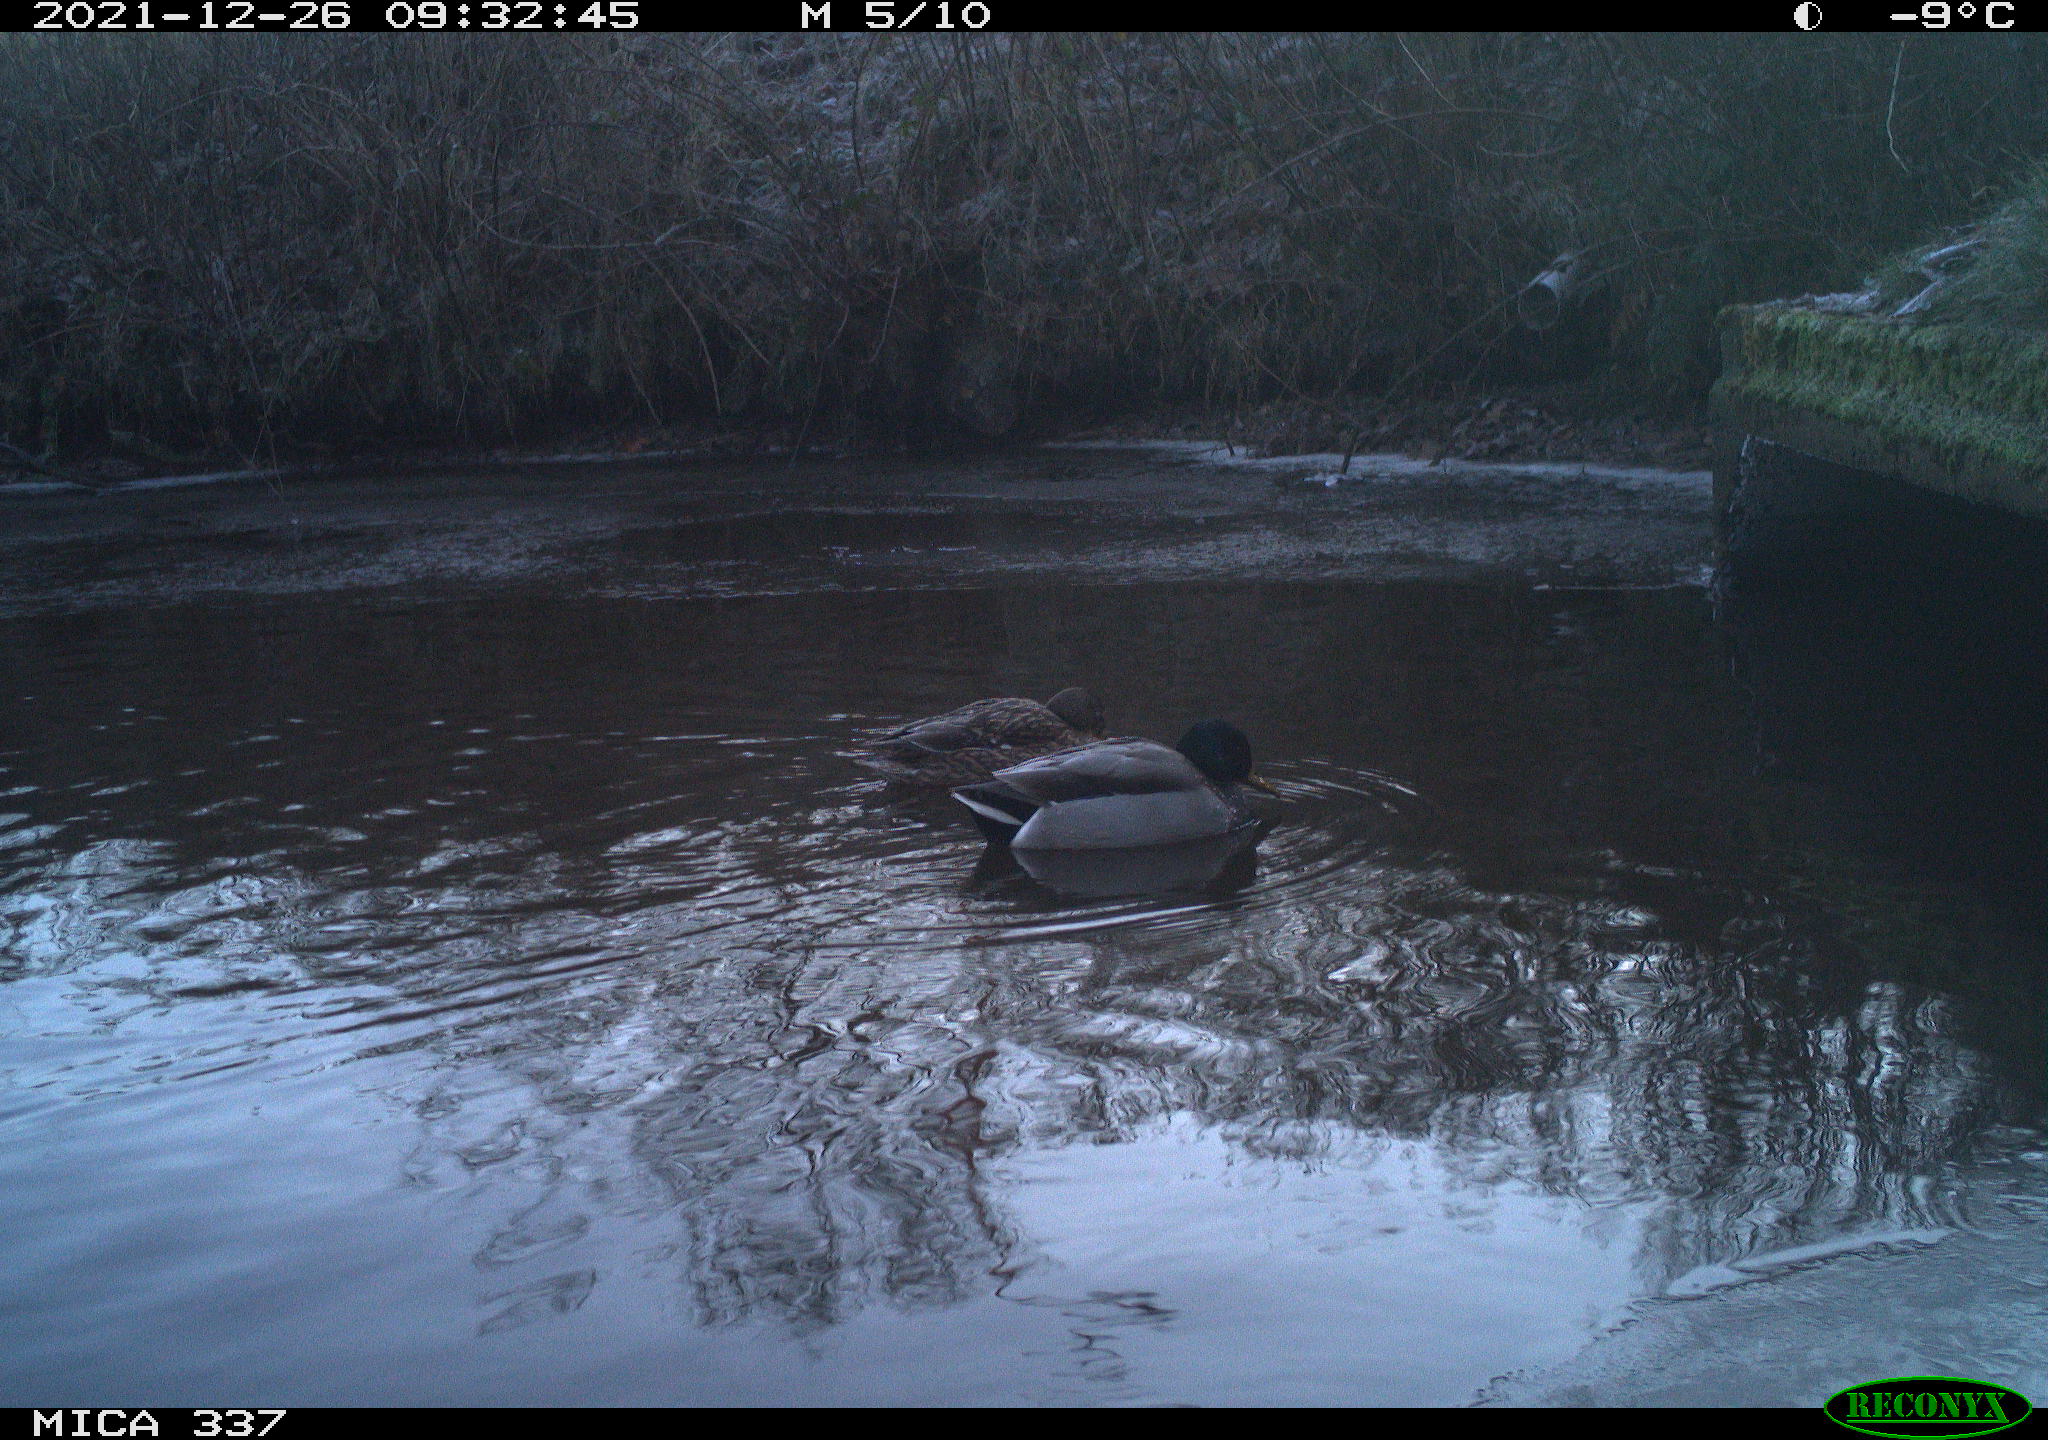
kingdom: Animalia
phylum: Chordata
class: Aves
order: Anseriformes
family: Anatidae
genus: Anas
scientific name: Anas platyrhynchos
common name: Mallard
